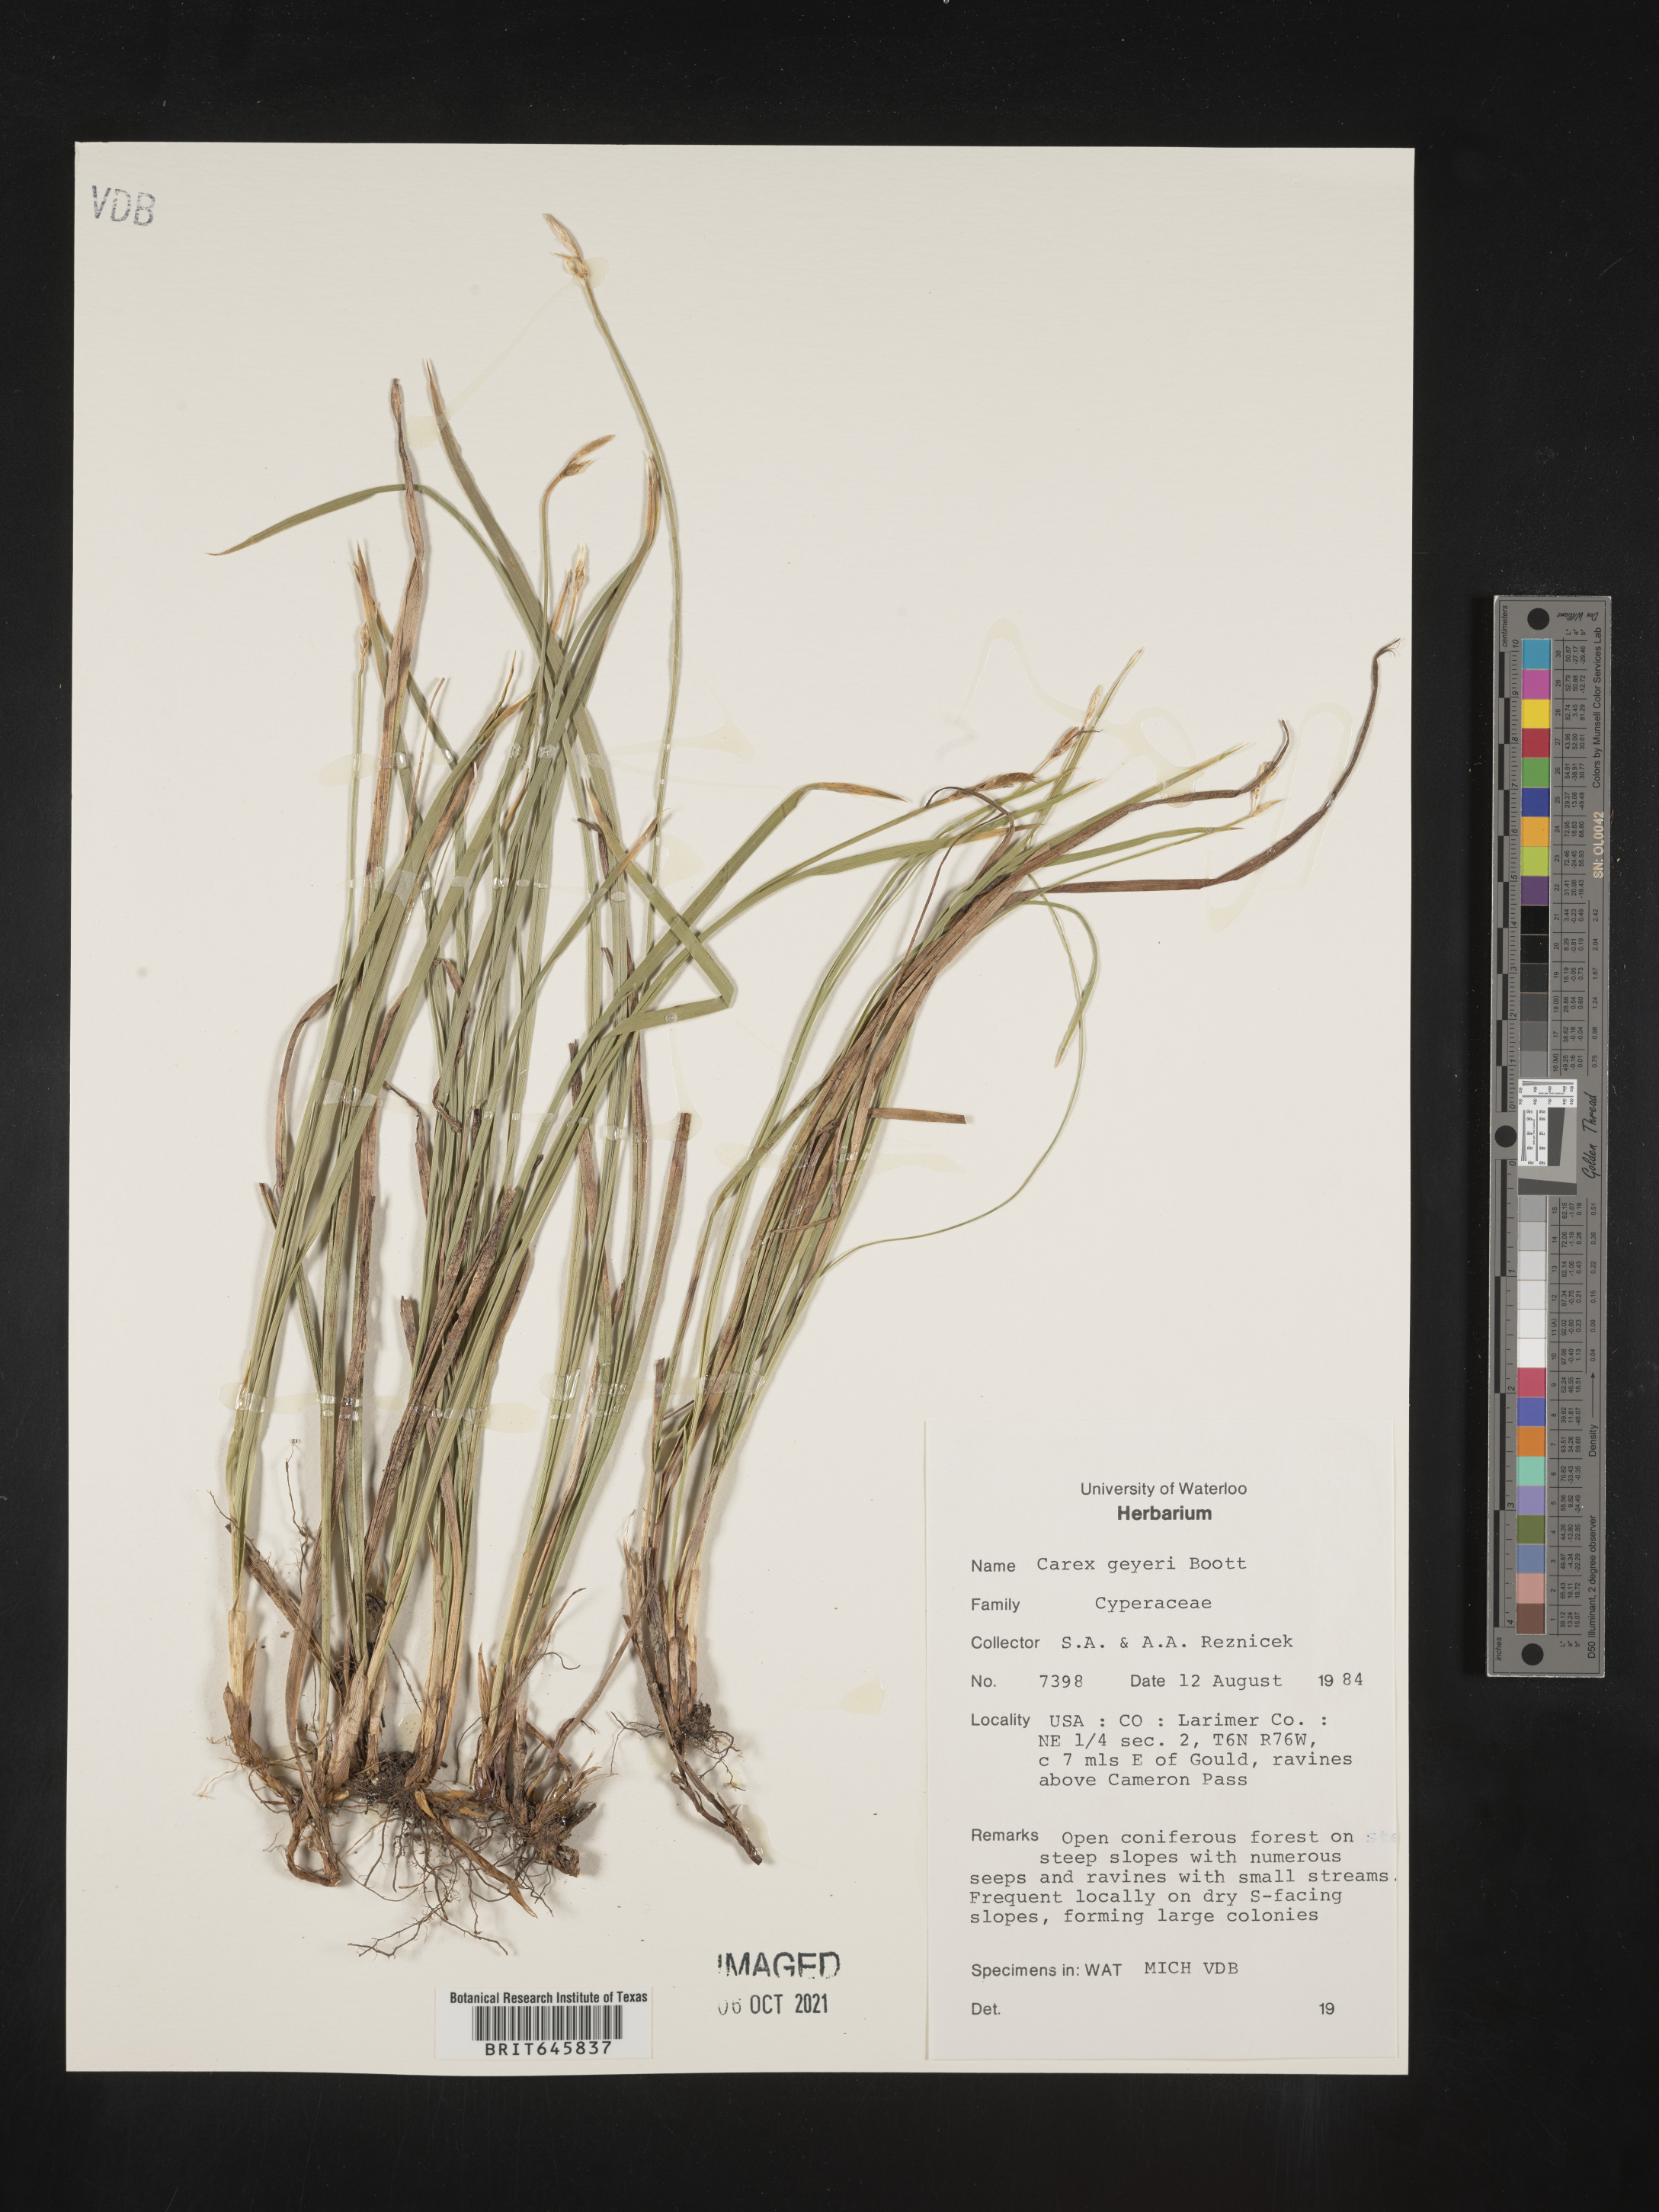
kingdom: Plantae
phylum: Tracheophyta
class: Liliopsida
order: Poales
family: Cyperaceae
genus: Carex
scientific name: Carex geyeri
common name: Elk sedge
